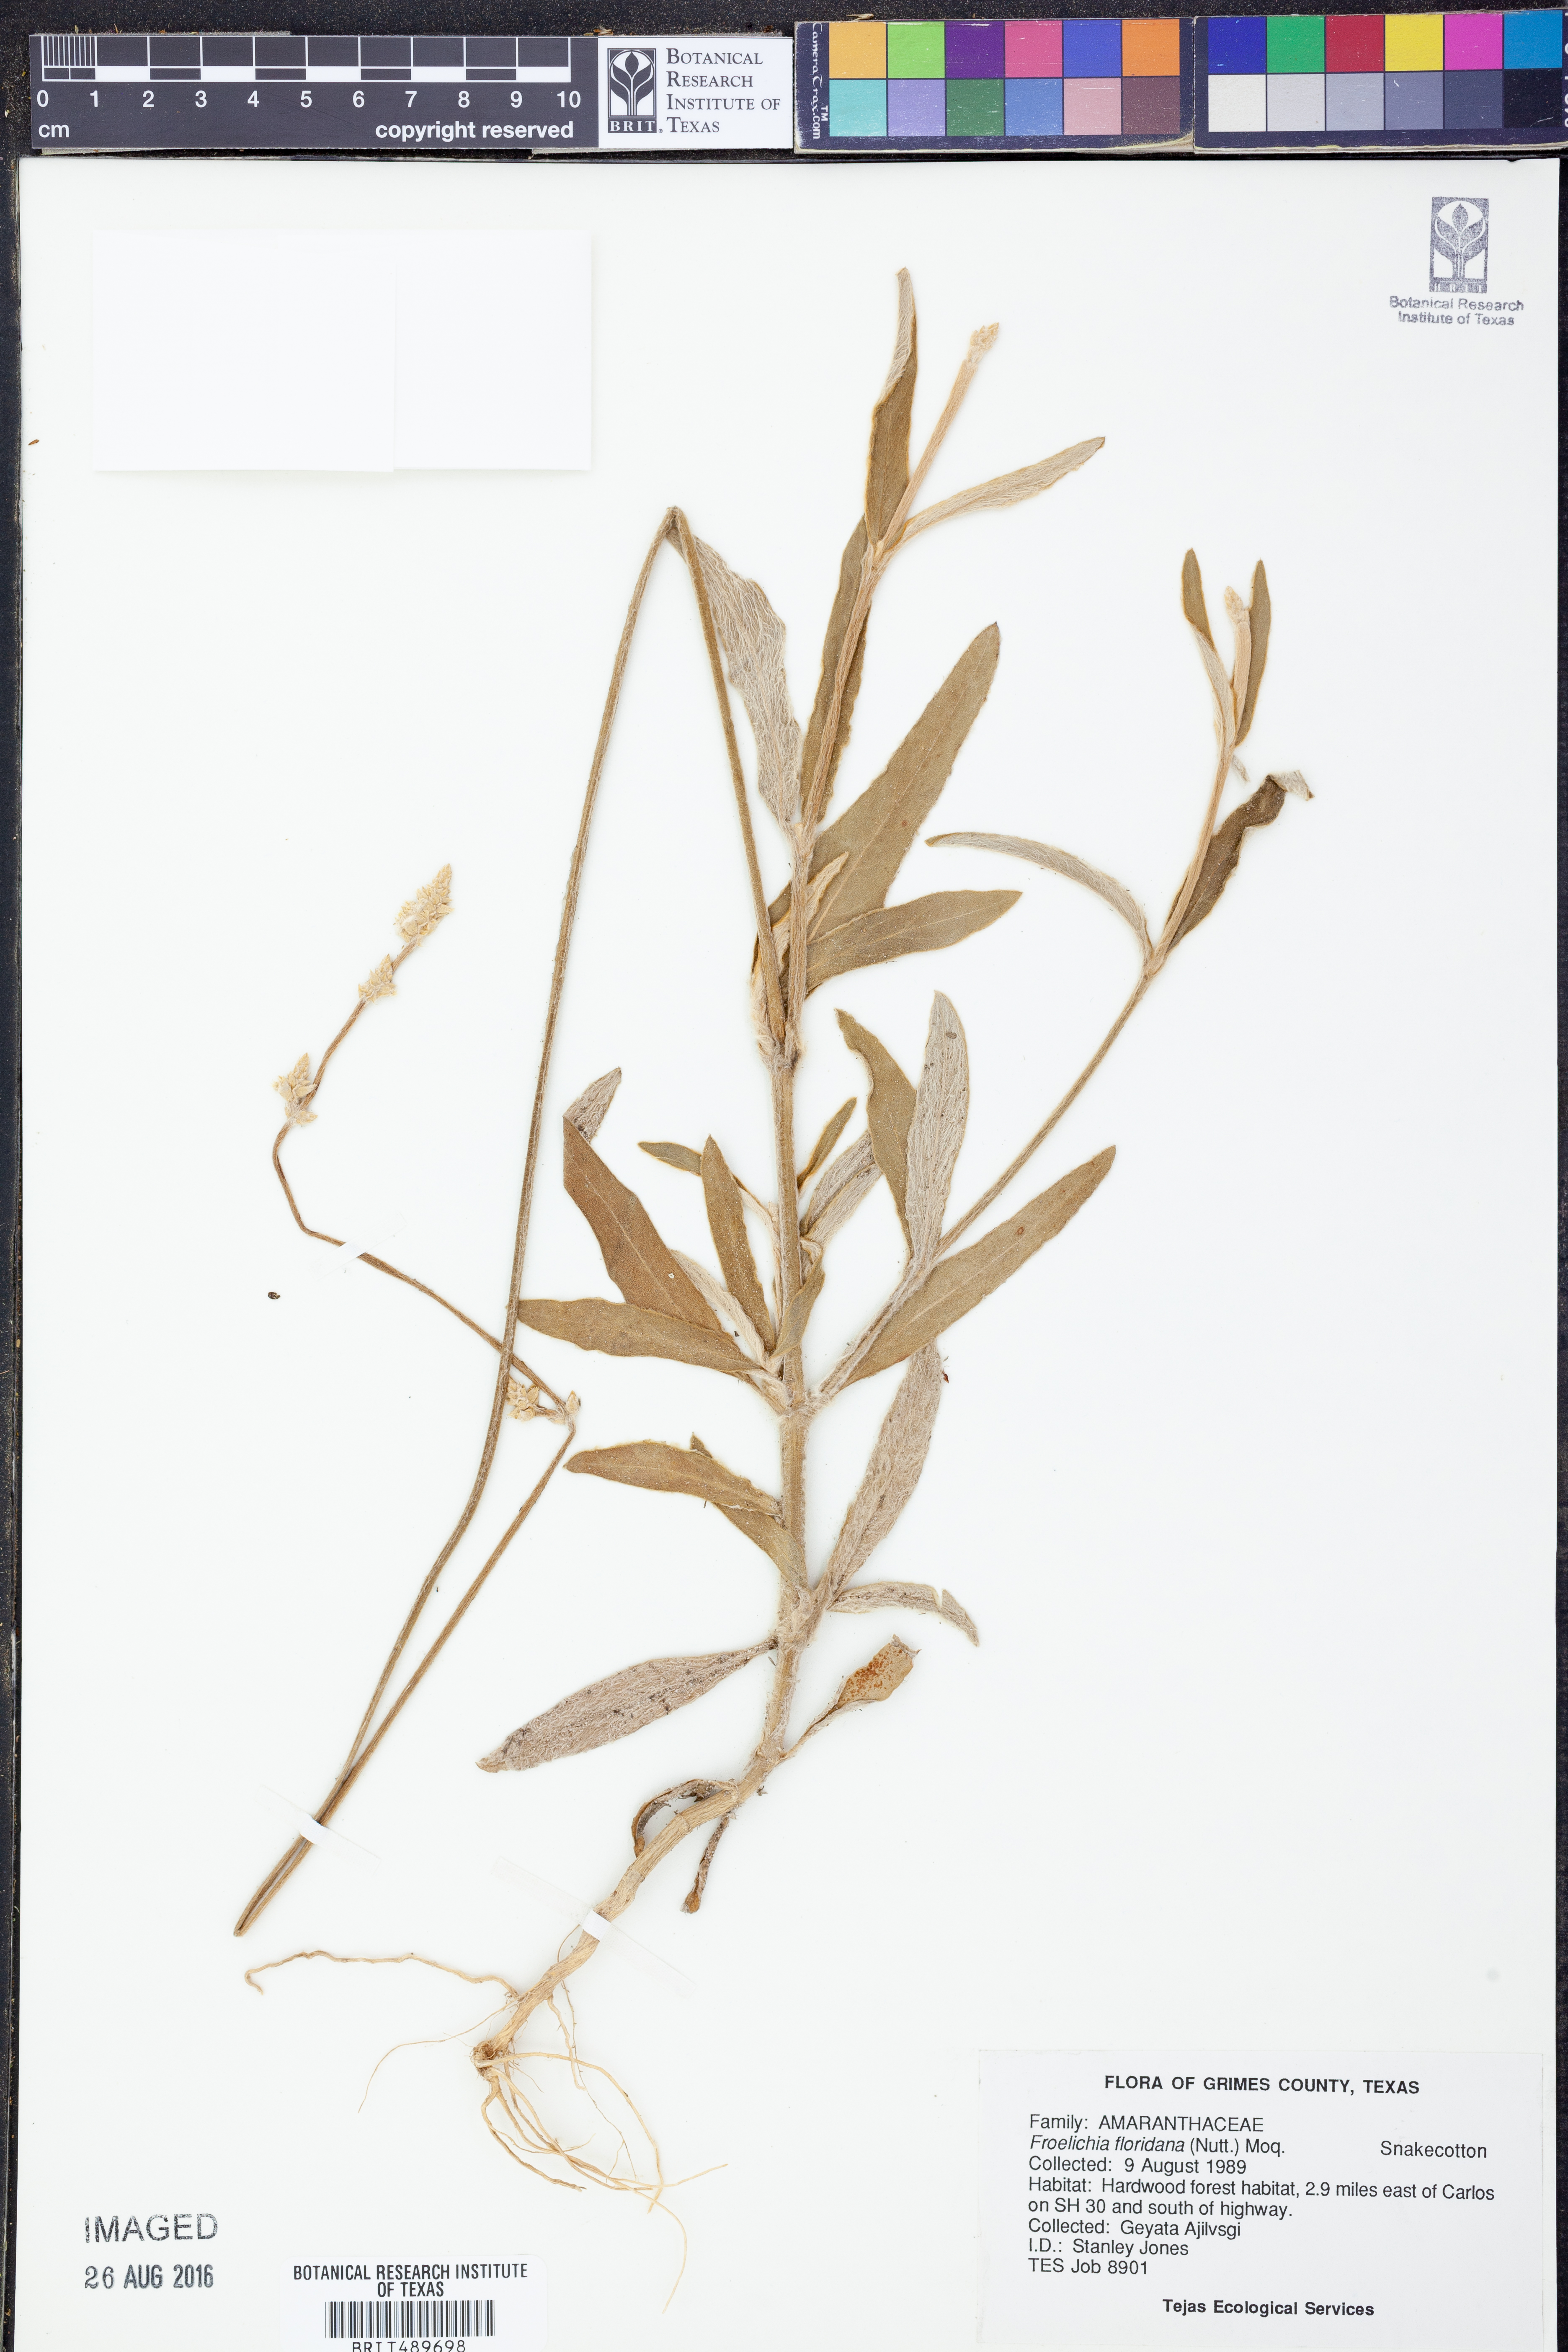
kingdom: Plantae
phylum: Tracheophyta
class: Magnoliopsida
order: Caryophyllales
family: Amaranthaceae
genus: Froelichia
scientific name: Froelichia floridana
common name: Florida snake-cotton
